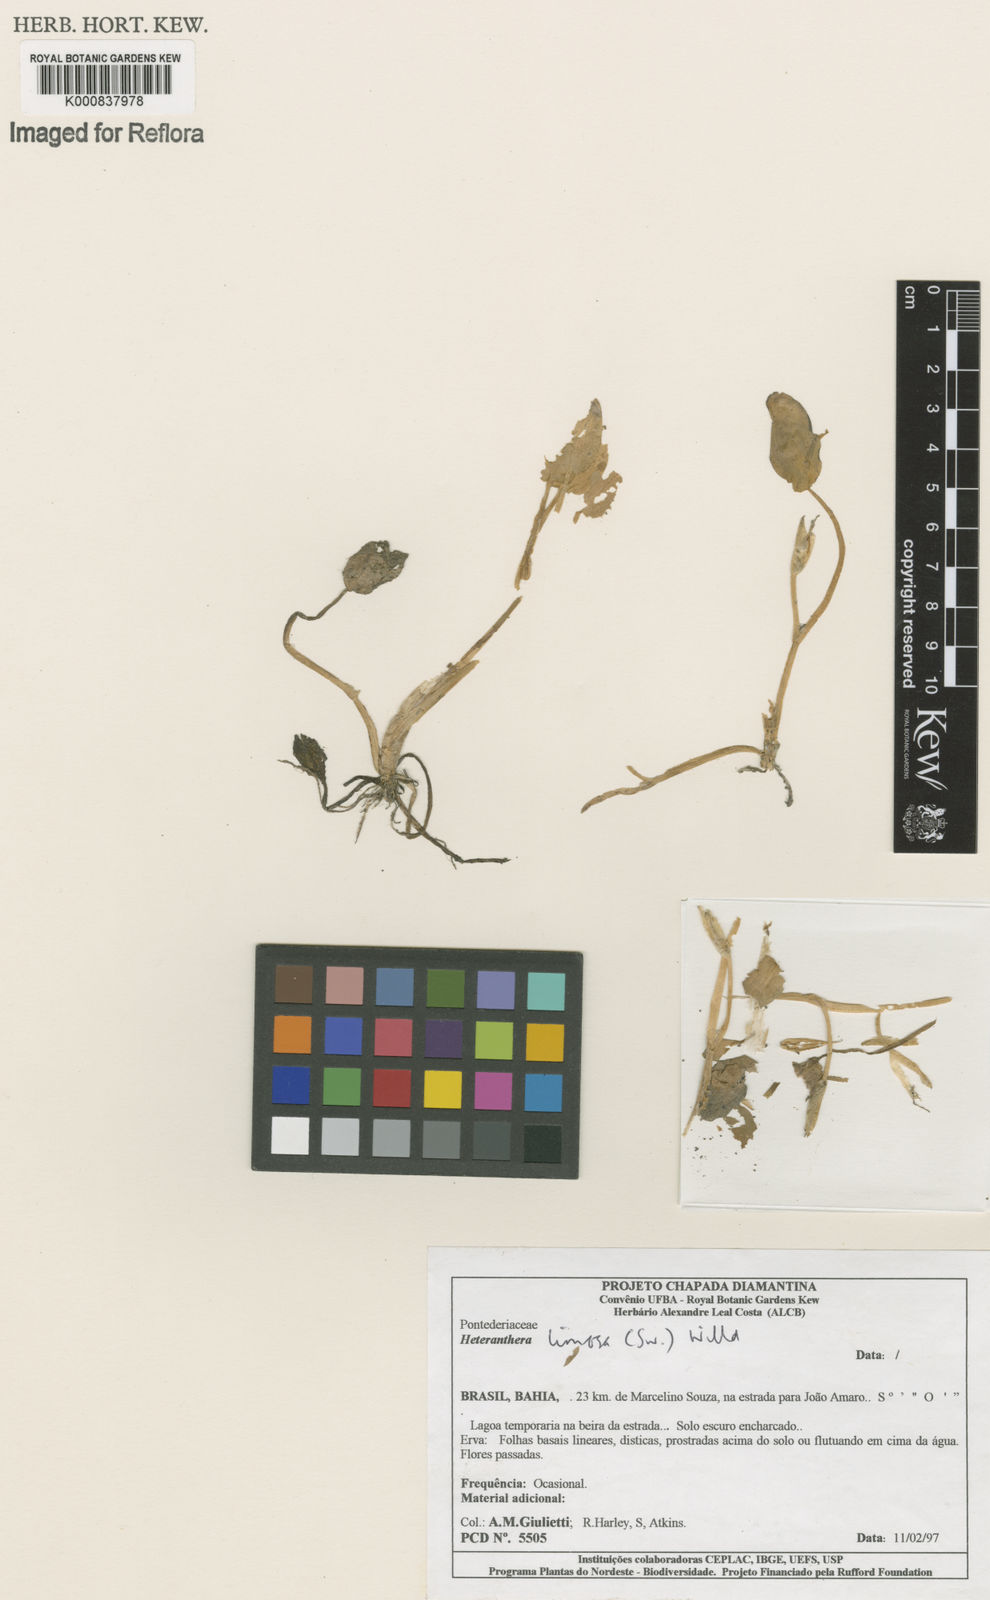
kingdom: Plantae
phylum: Tracheophyta
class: Liliopsida
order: Commelinales
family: Pontederiaceae
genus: Heteranthera
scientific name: Heteranthera rotundifolia
